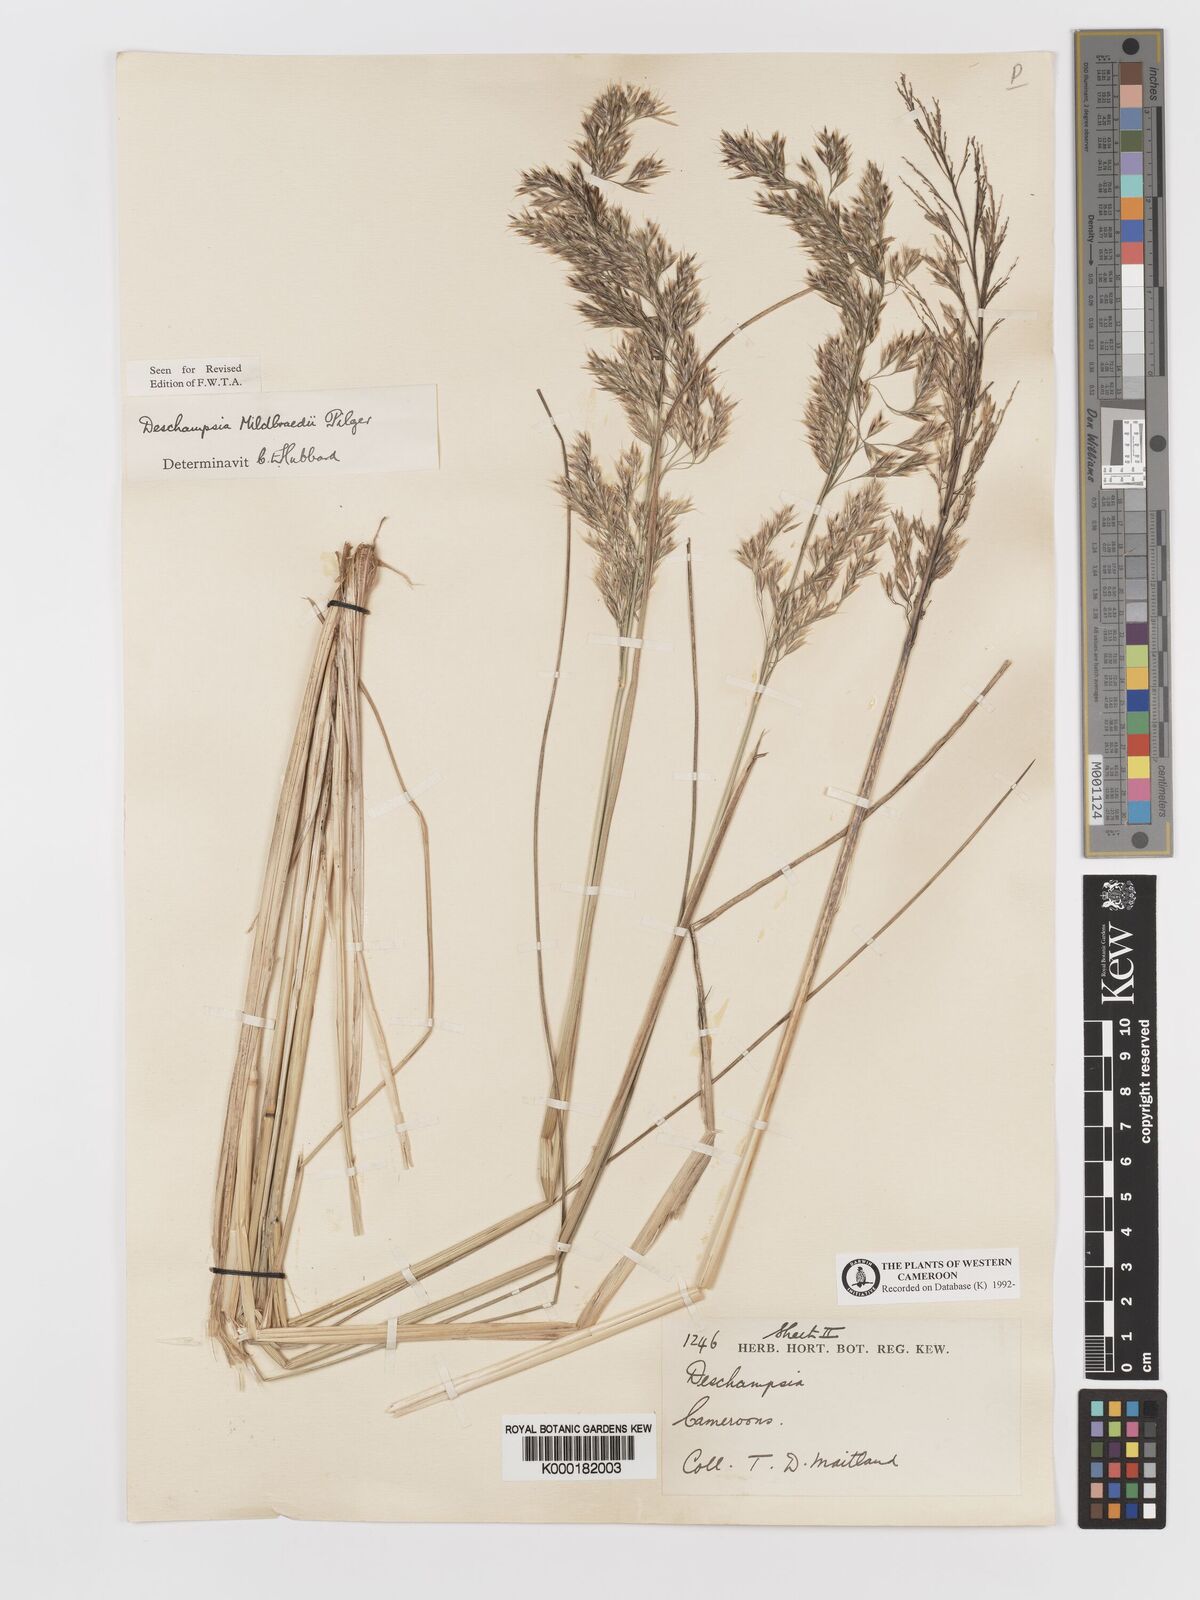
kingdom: Plantae
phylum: Tracheophyta
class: Liliopsida
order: Poales
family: Poaceae
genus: Deschampsia
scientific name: Deschampsia mildbraedii
